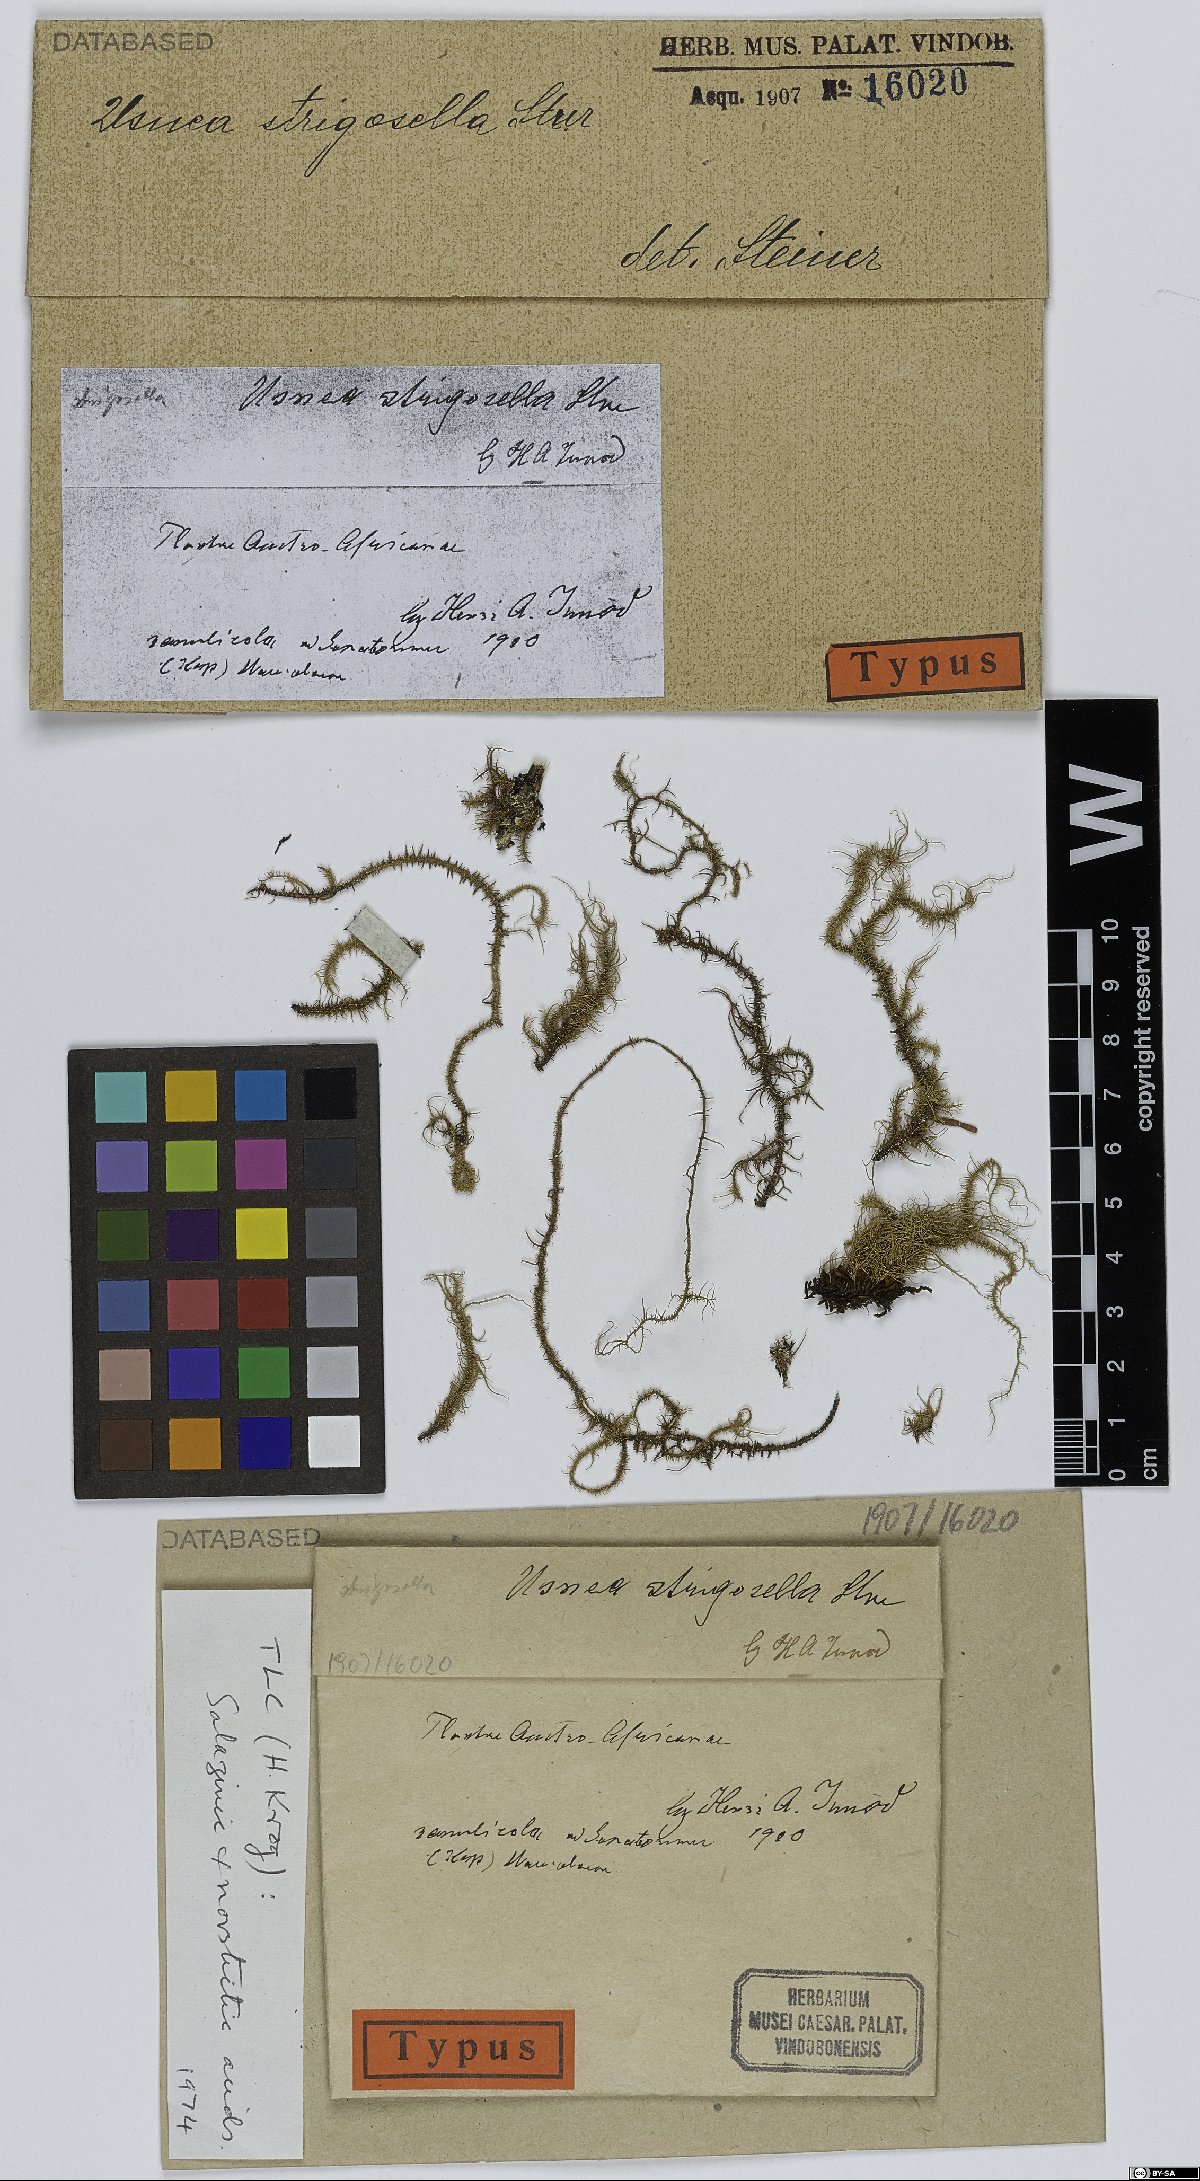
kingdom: Fungi
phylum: Ascomycota
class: Lecanoromycetes
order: Lecanorales
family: Parmeliaceae
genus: Usnea
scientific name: Usnea strigosella
